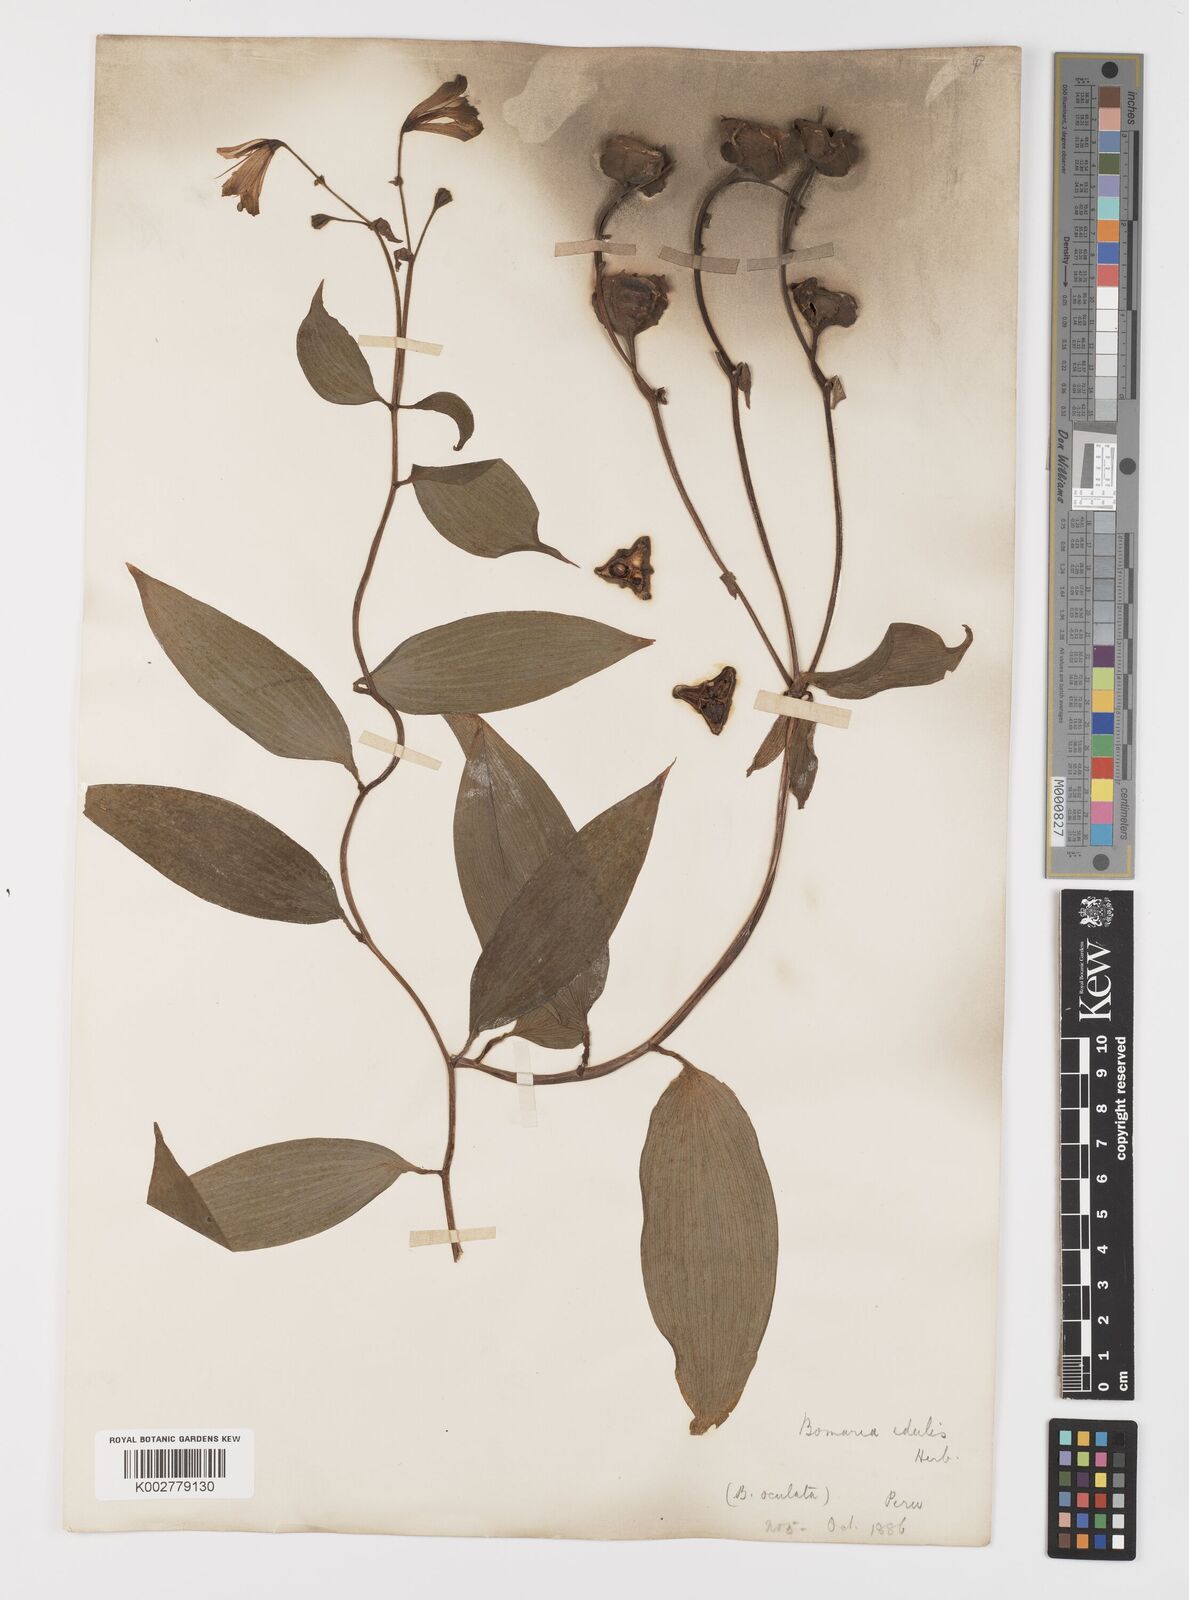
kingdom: Plantae
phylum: Tracheophyta
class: Liliopsida
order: Liliales
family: Alstroemeriaceae
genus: Bomarea
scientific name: Bomarea edulis
